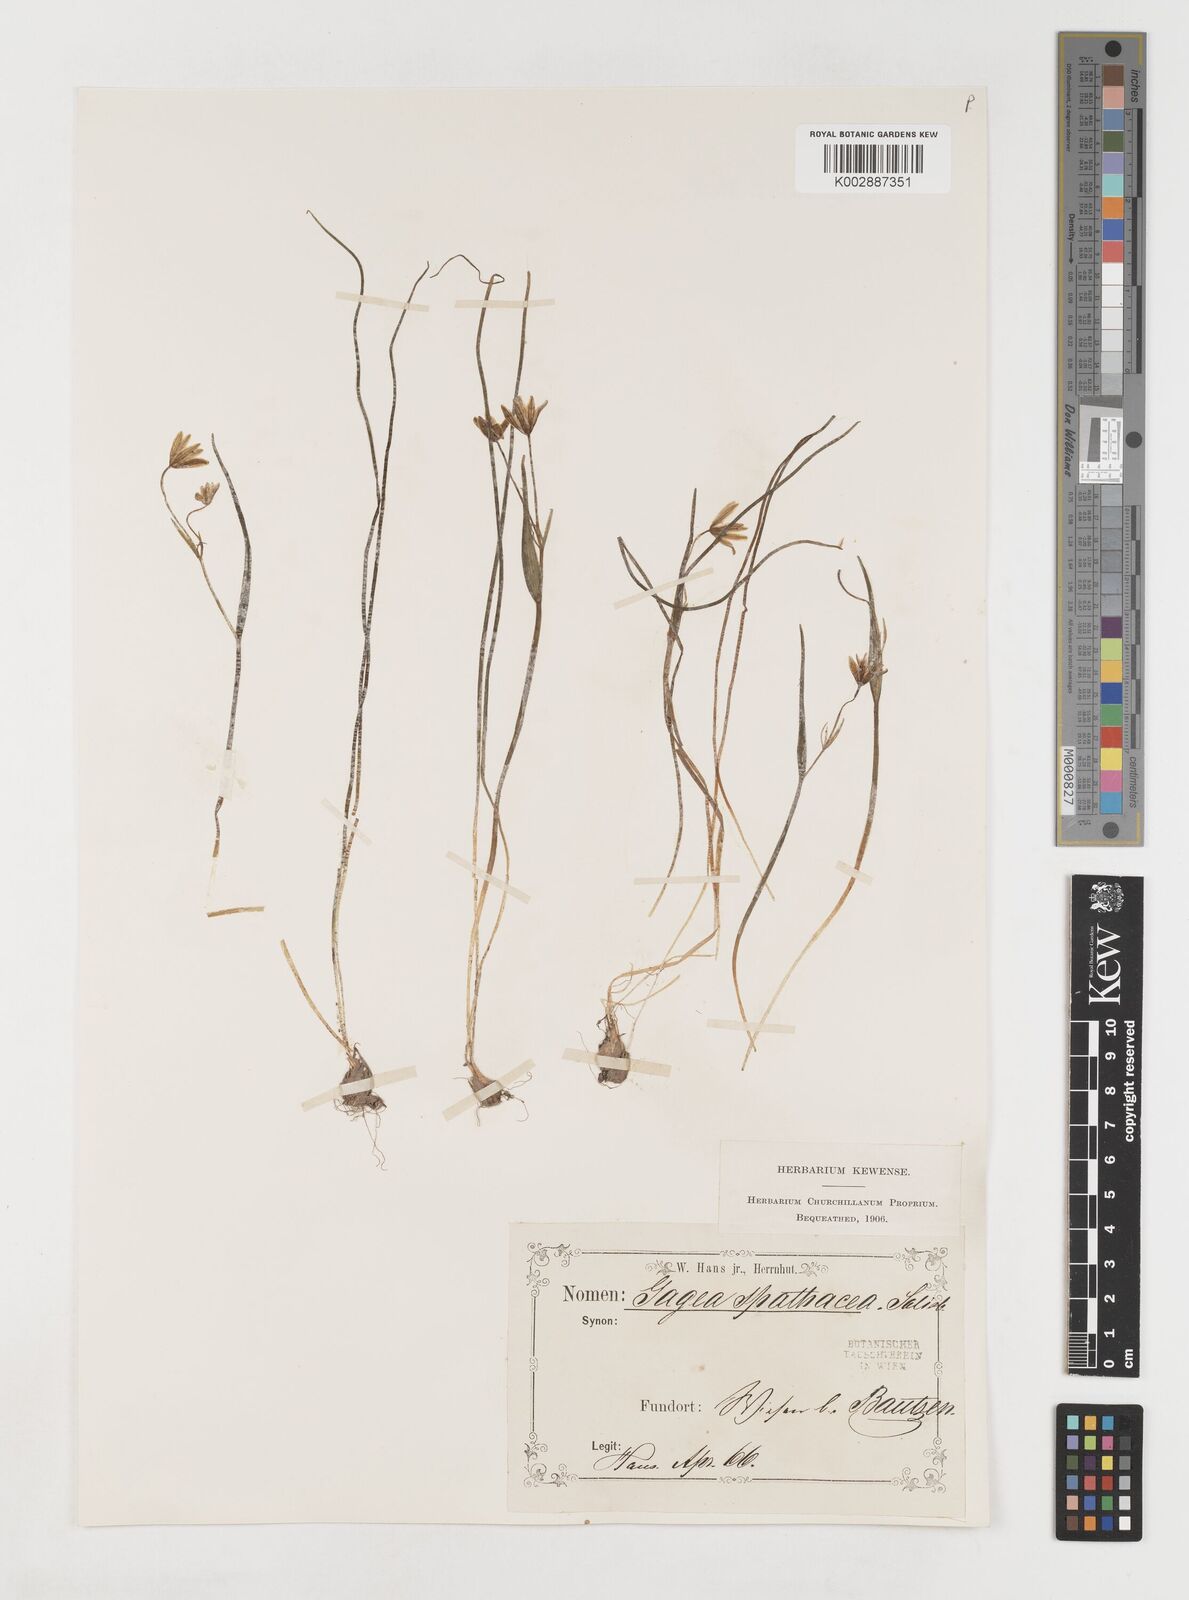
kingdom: Plantae
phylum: Tracheophyta
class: Liliopsida
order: Liliales
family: Liliaceae
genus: Gagea
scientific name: Gagea spathacea
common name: Belgian gagea
